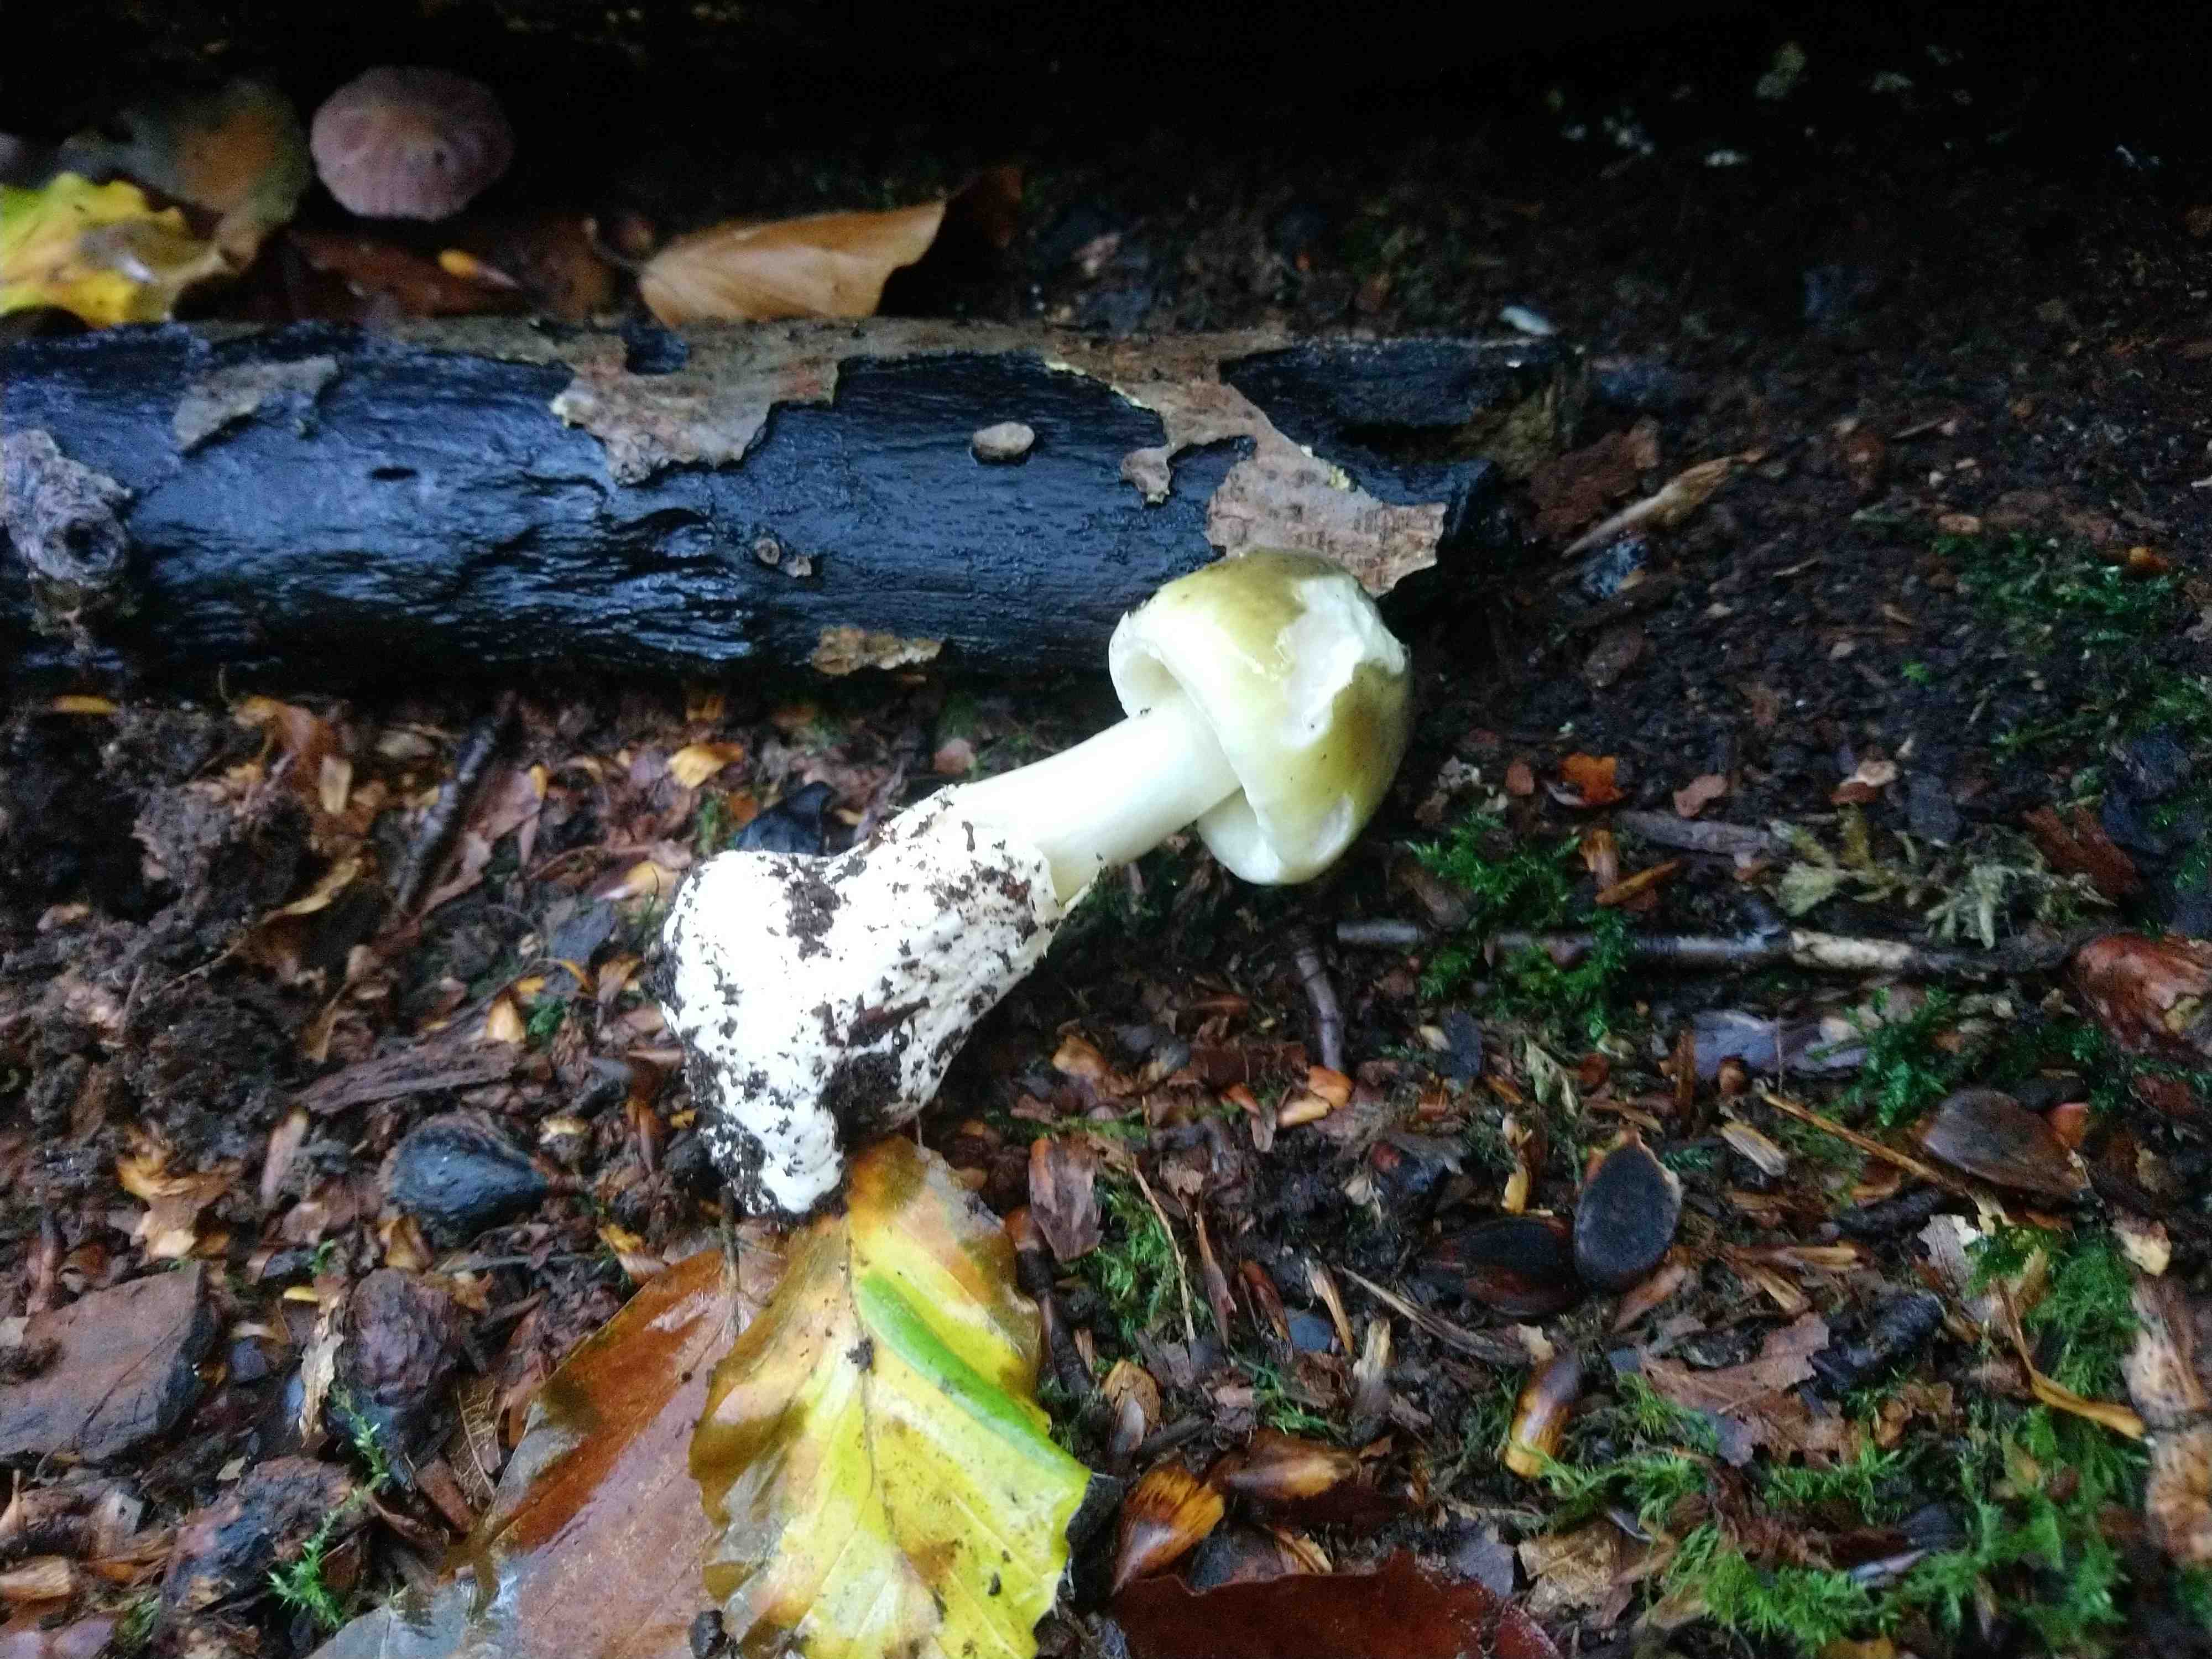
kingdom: Fungi
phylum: Basidiomycota
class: Agaricomycetes
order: Agaricales
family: Amanitaceae
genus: Amanita
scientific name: Amanita phalloides
